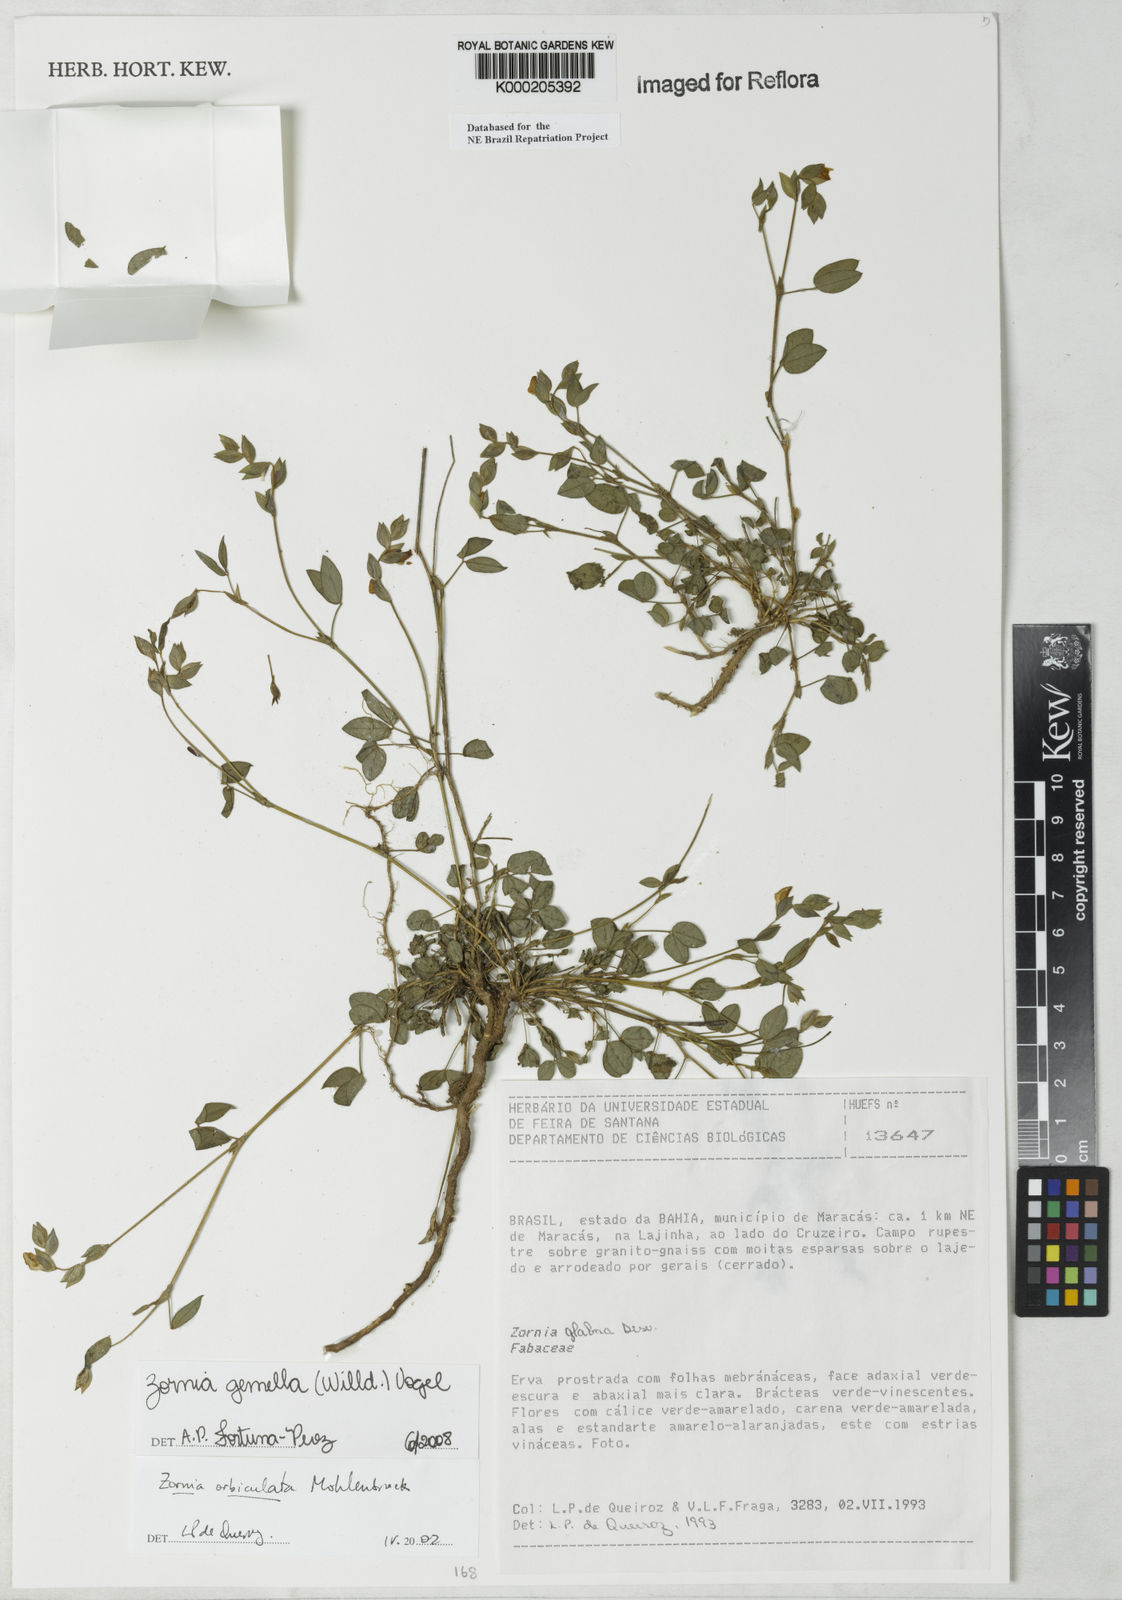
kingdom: Plantae
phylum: Tracheophyta
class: Magnoliopsida
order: Fabales
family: Fabaceae
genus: Zornia
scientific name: Zornia latifolia
